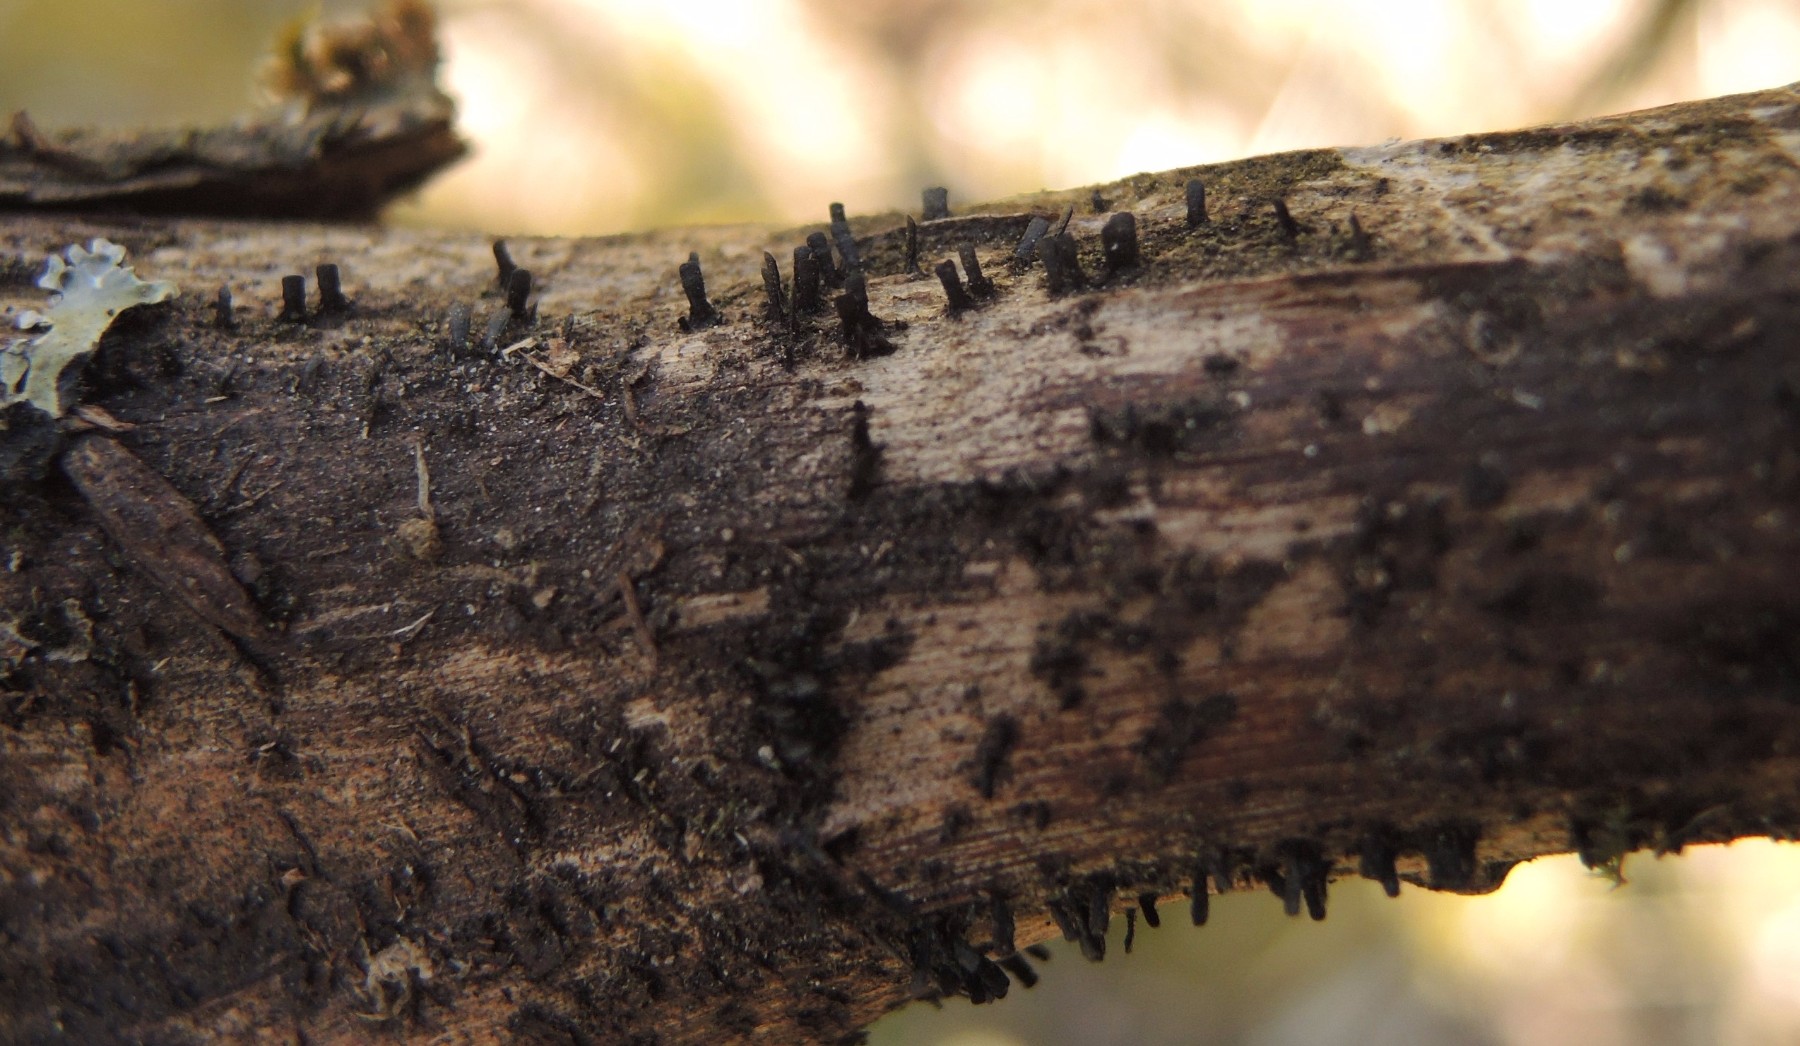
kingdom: Fungi
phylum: Ascomycota
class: Eurotiomycetes
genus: Glyphium
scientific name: Glyphium elatum
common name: kuløkse
